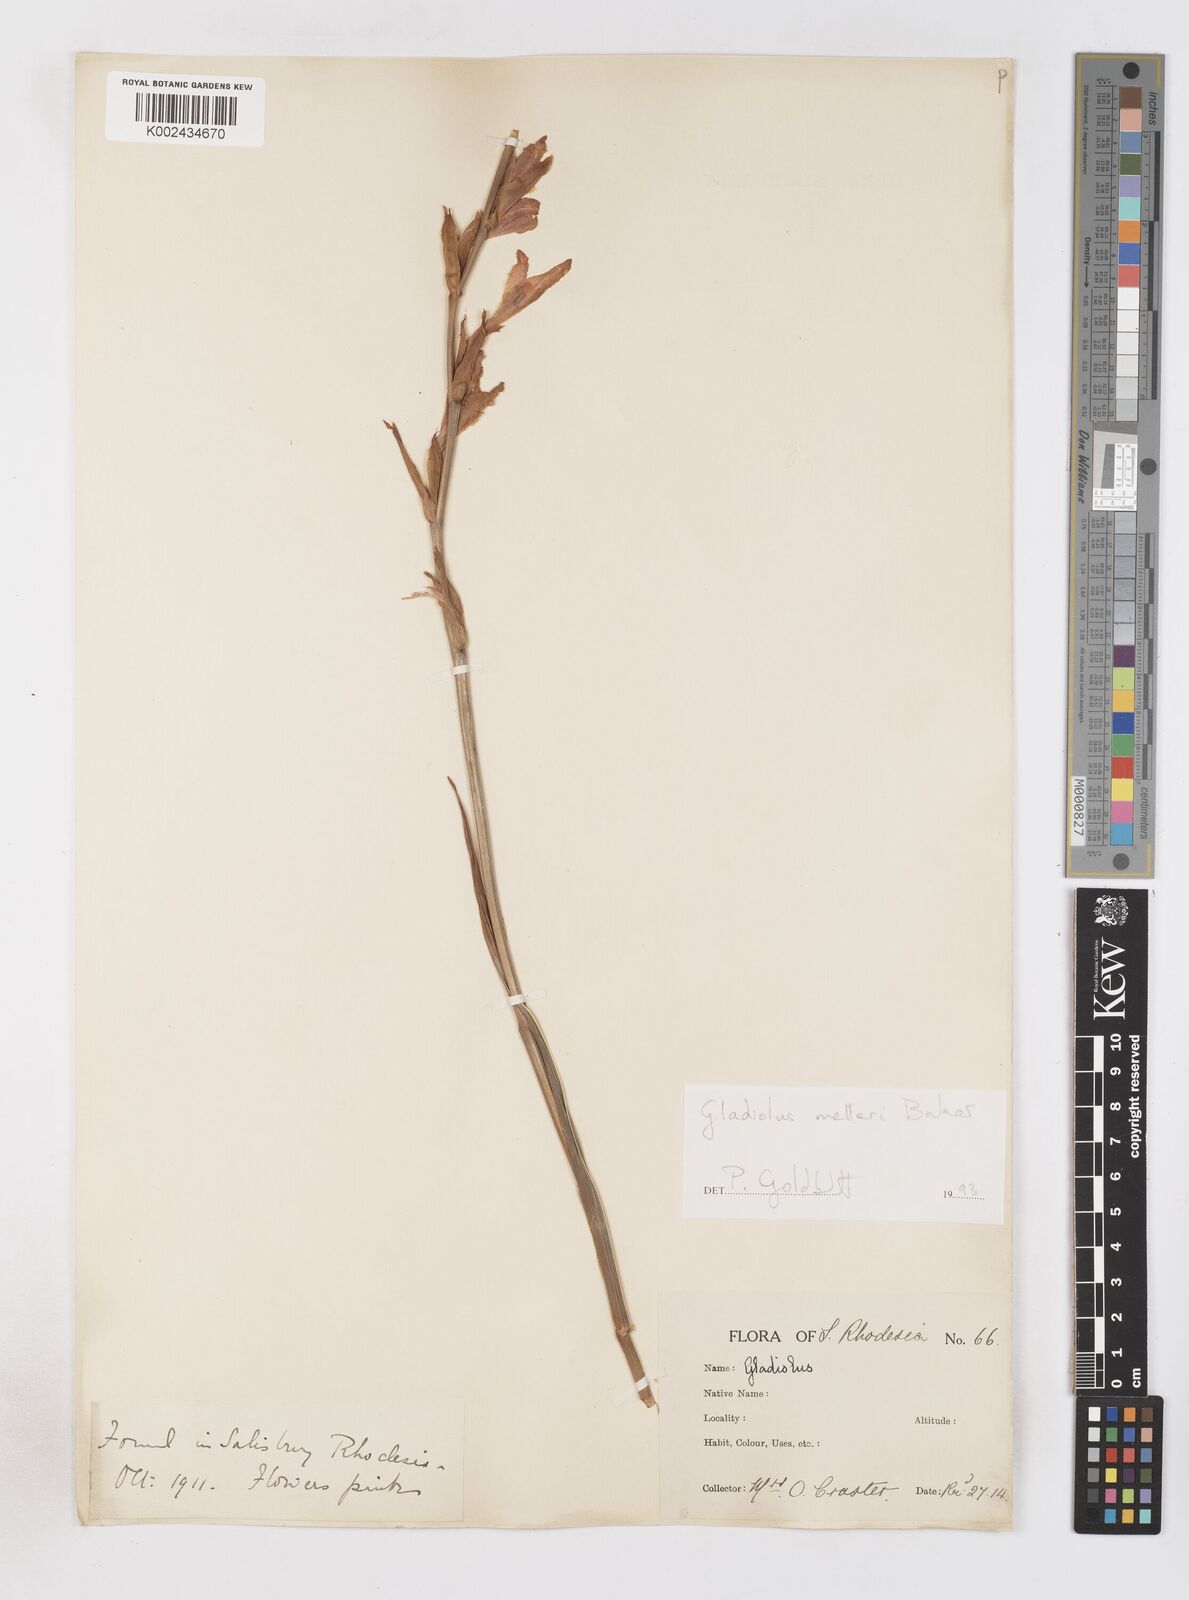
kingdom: Plantae
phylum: Tracheophyta
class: Liliopsida
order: Asparagales
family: Iridaceae
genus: Gladiolus
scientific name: Gladiolus melleri
